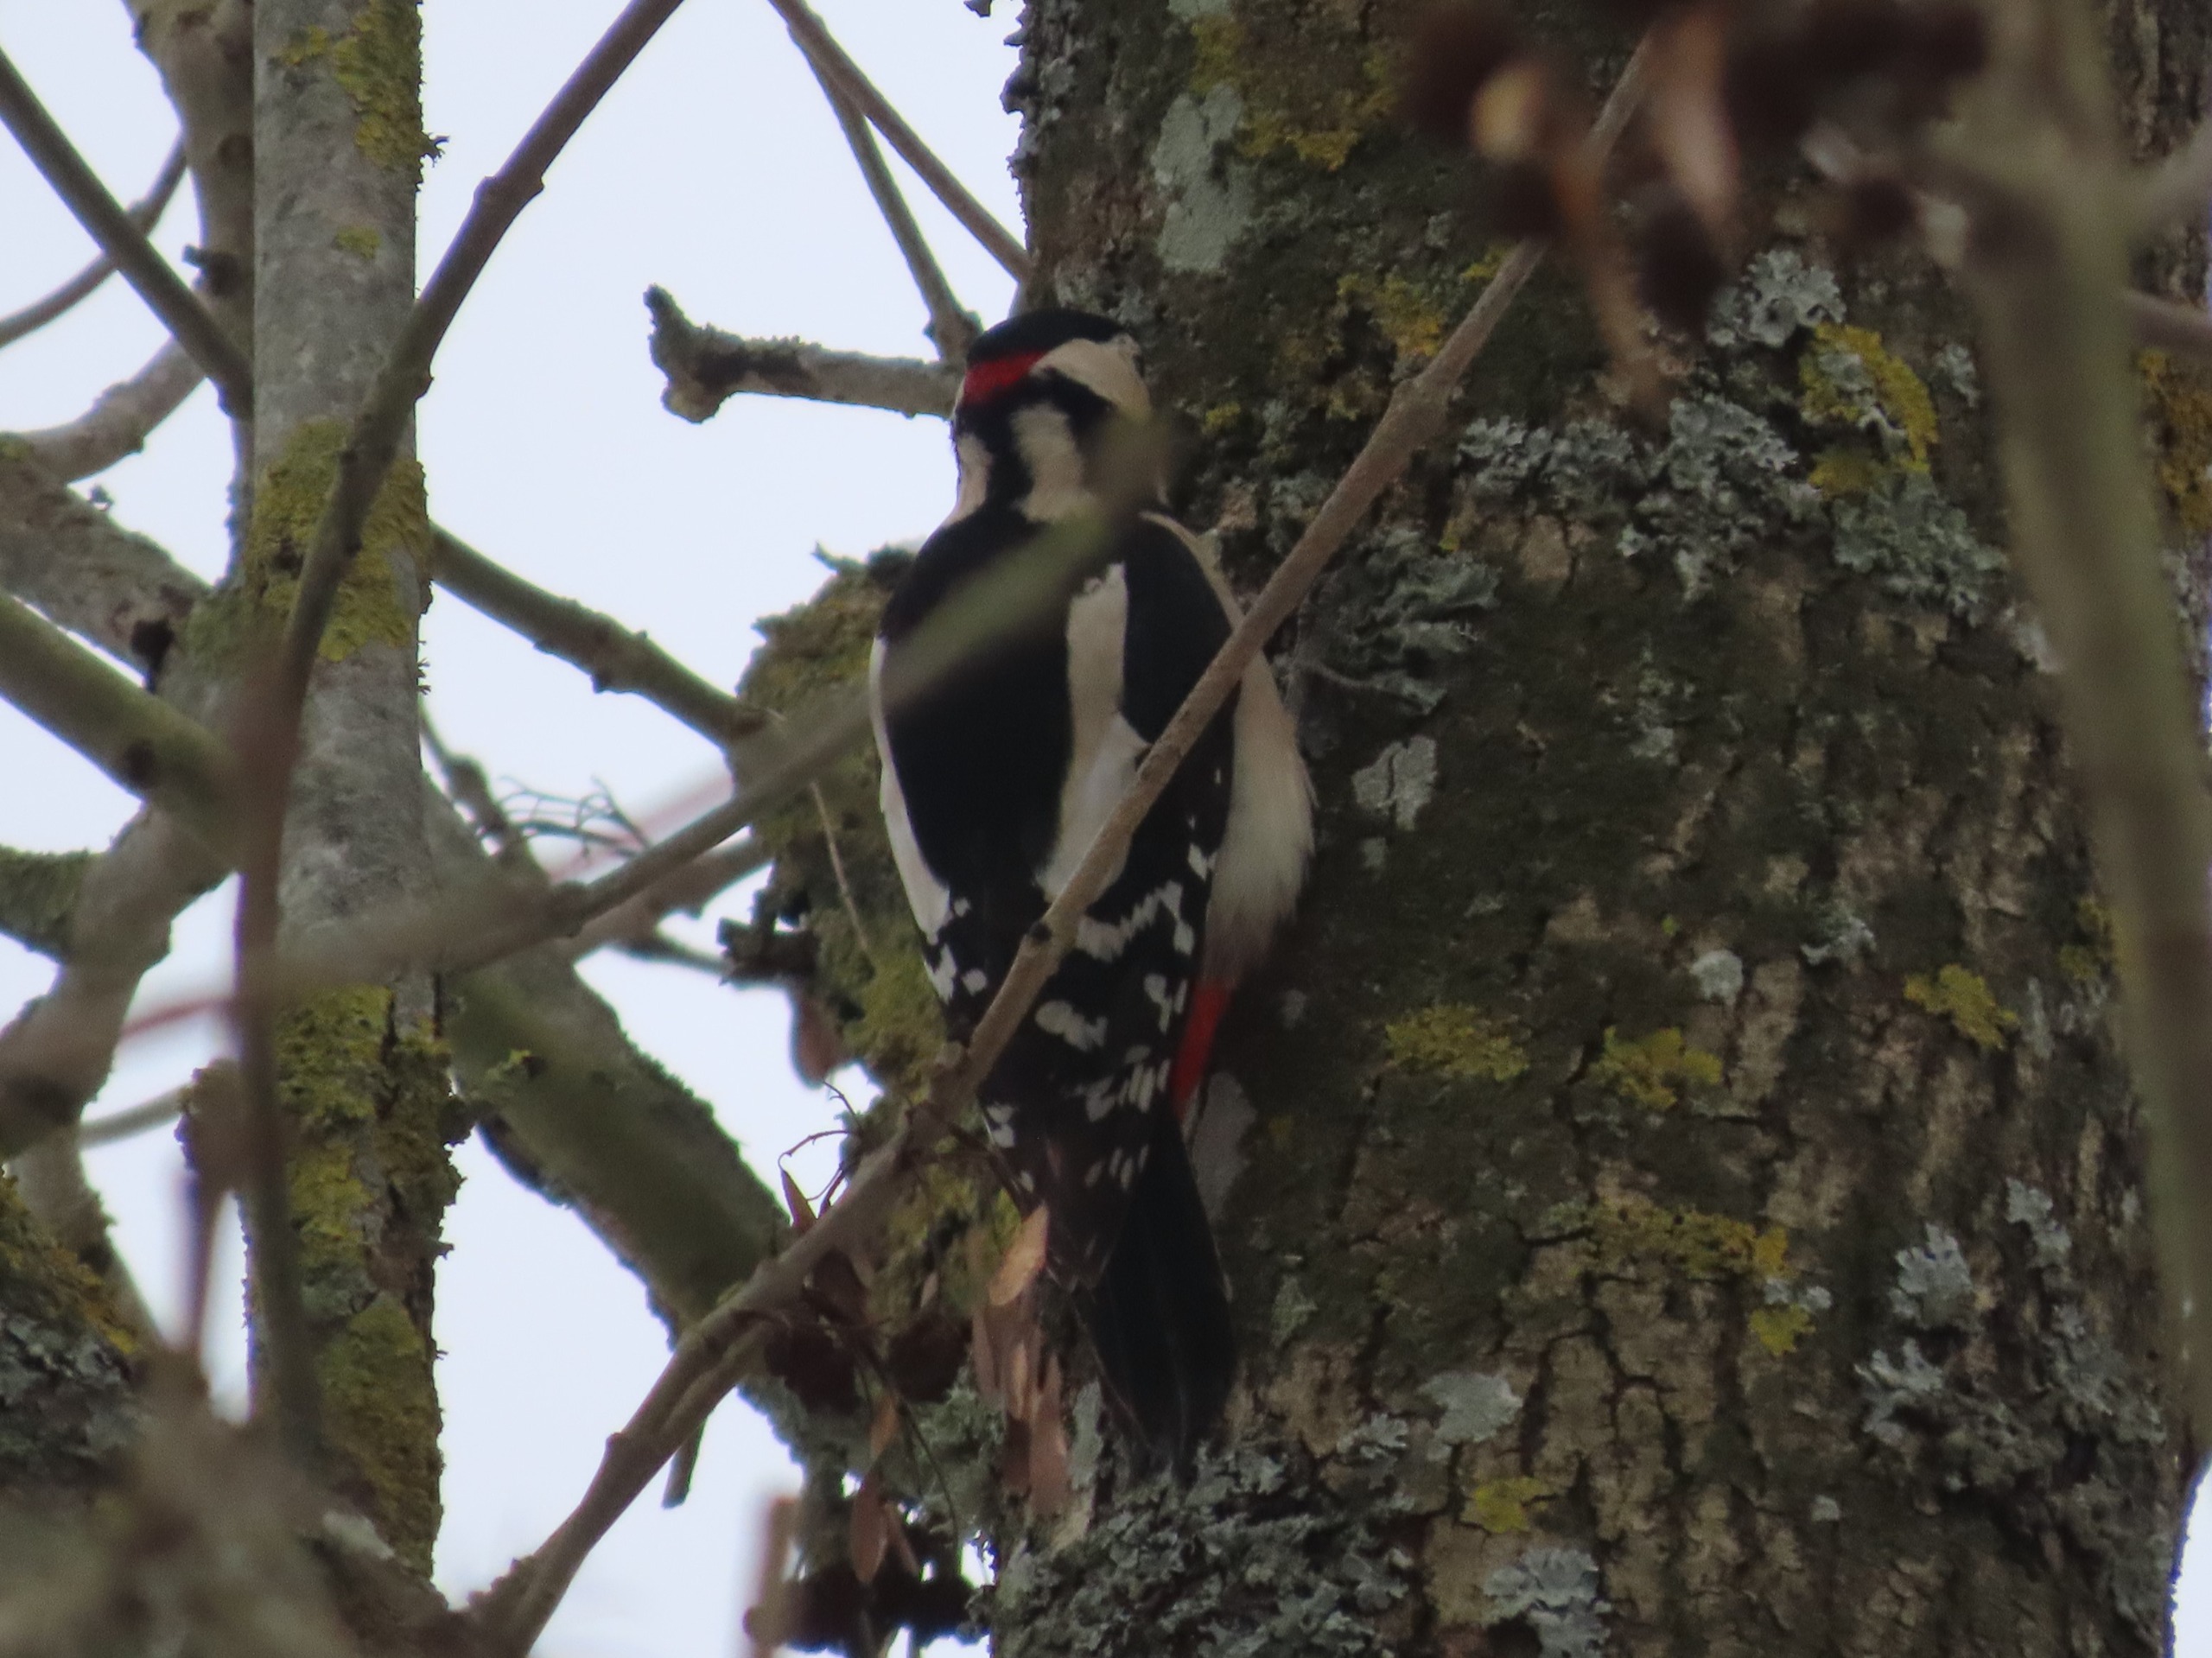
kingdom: Animalia
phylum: Chordata
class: Aves
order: Piciformes
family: Picidae
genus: Dendrocopos
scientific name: Dendrocopos major
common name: Stor flagspætte
